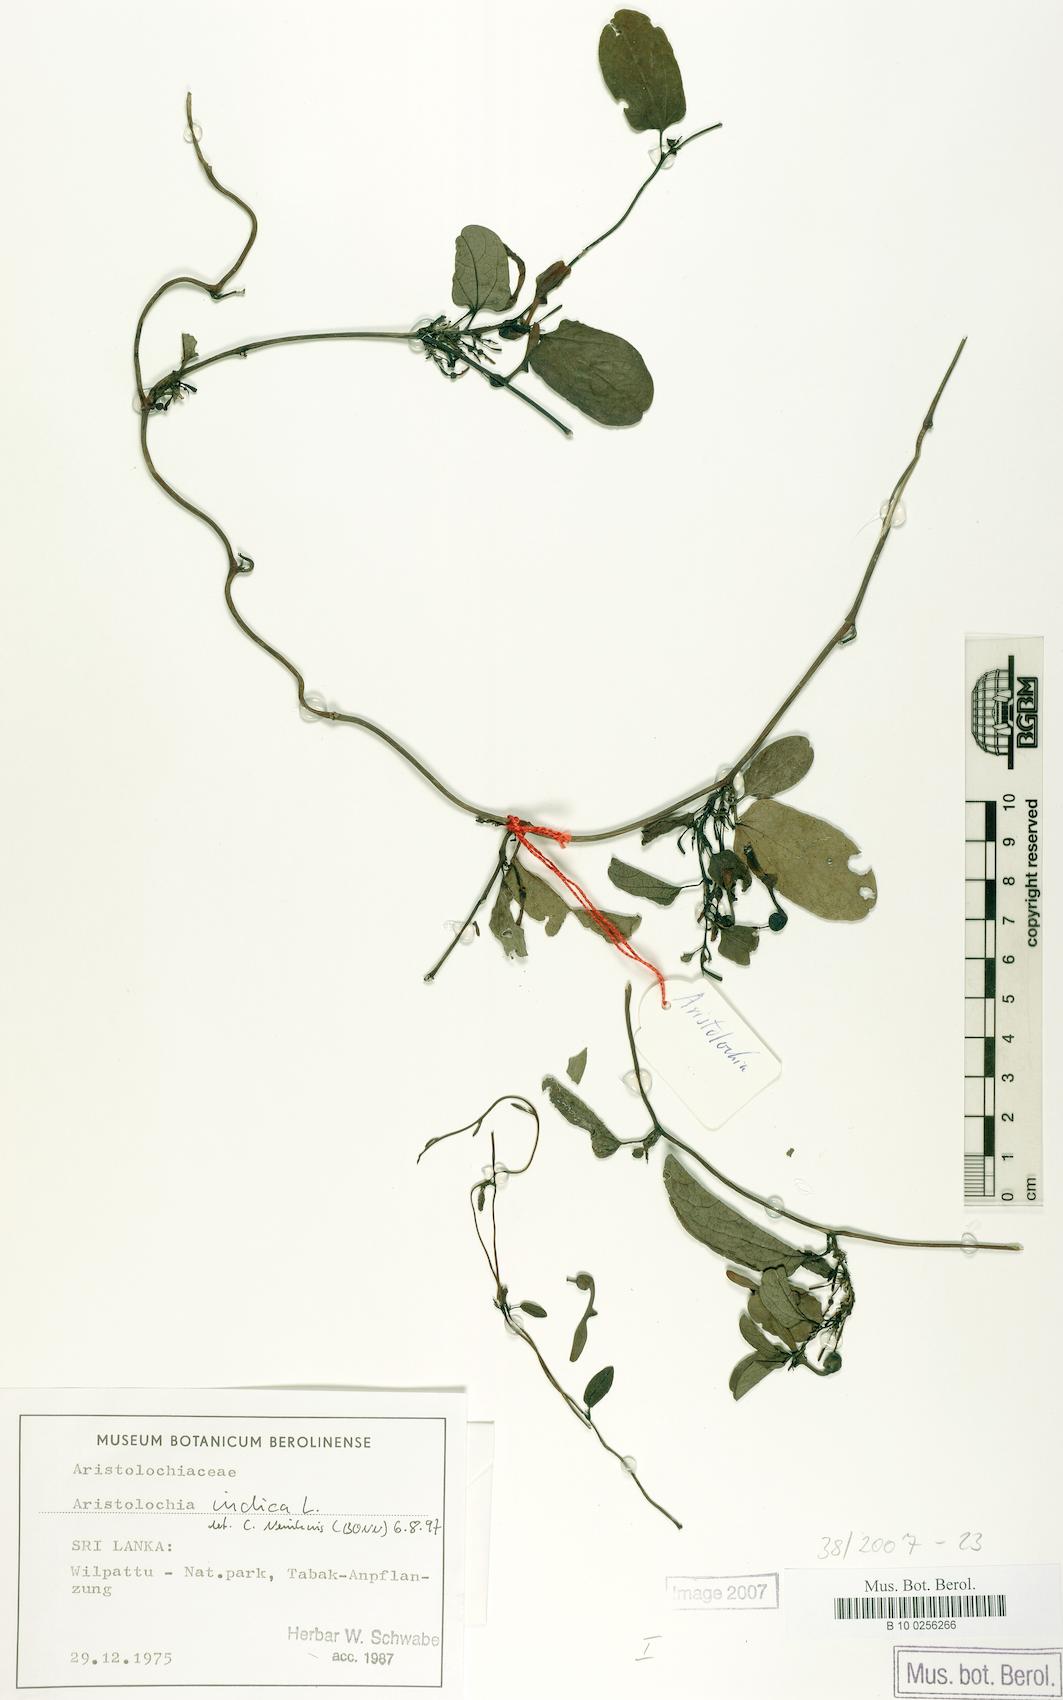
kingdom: Plantae
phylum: Tracheophyta
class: Magnoliopsida
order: Piperales
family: Aristolochiaceae
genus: Aristolochia
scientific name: Aristolochia indica
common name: Indian birthwort
